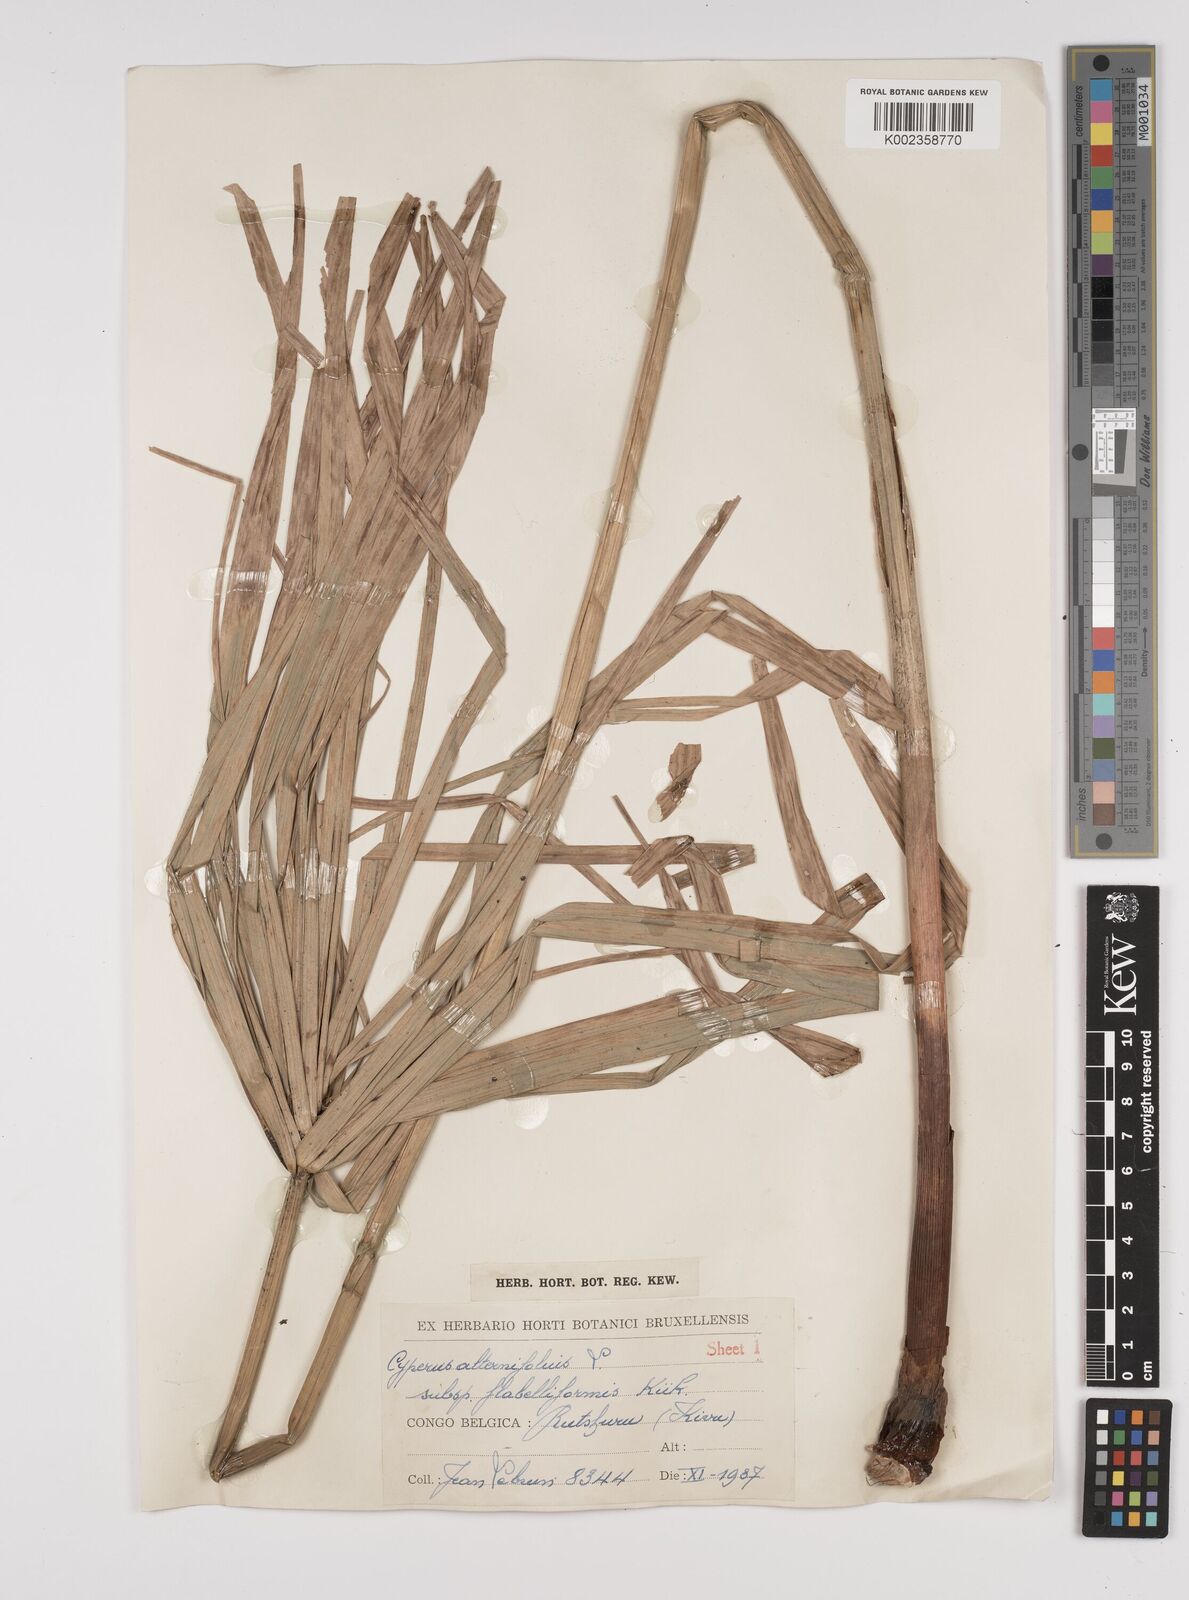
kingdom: Plantae
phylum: Tracheophyta
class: Liliopsida
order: Poales
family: Cyperaceae
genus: Cyperus
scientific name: Cyperus alternifolius
